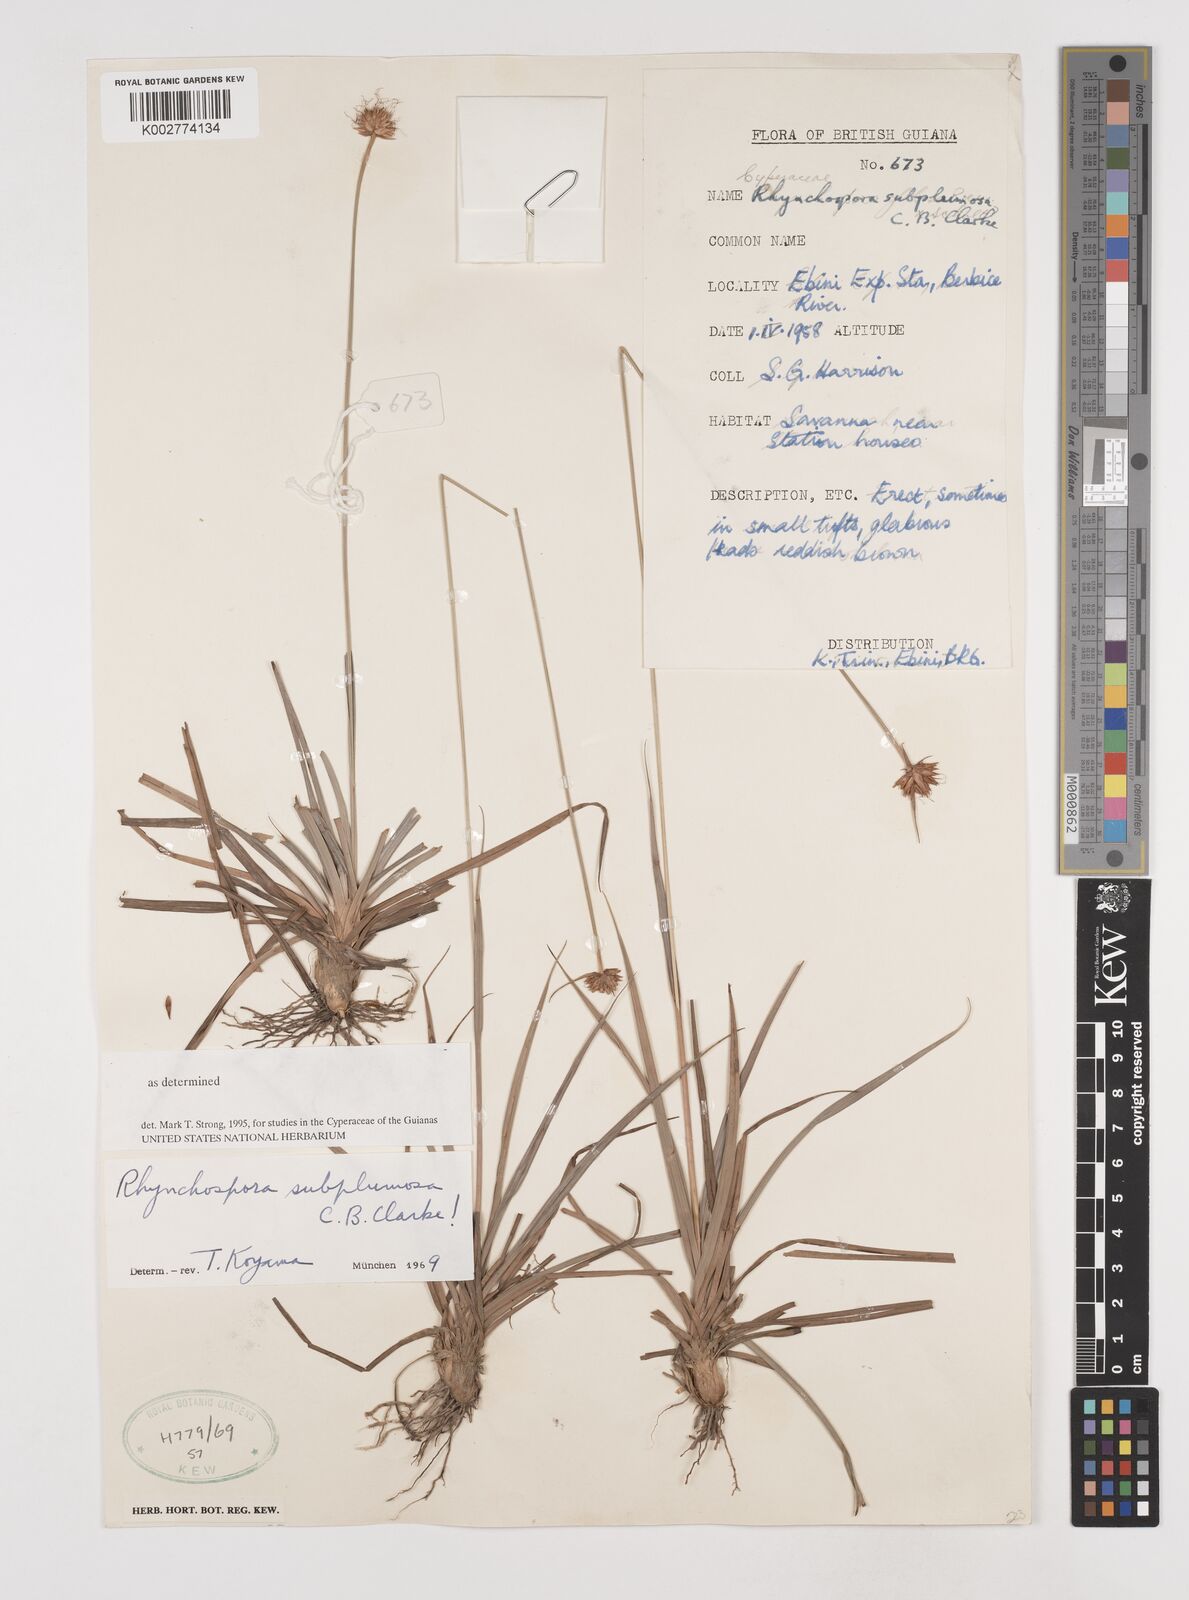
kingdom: Plantae
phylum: Tracheophyta
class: Liliopsida
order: Poales
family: Cyperaceae
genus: Rhynchospora
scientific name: Rhynchospora subplumosa
